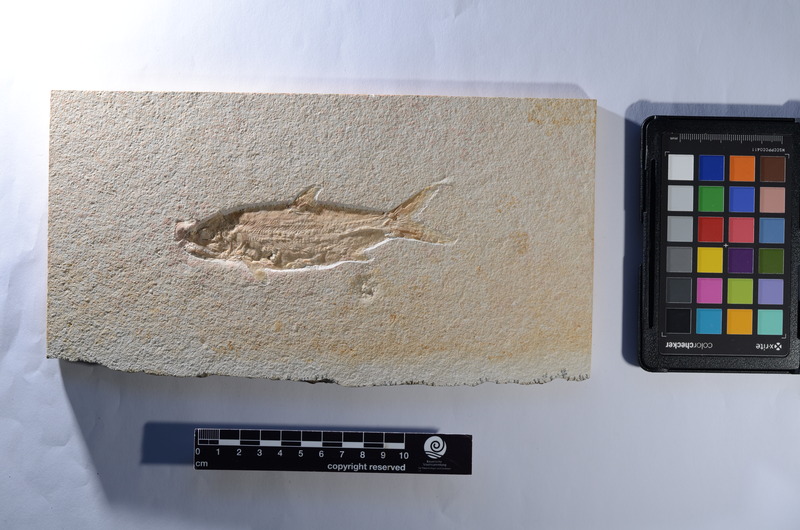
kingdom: Animalia
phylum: Chordata
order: Amiiformes
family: Caturidae
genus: Amblysemius
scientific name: Amblysemius pachyurus
